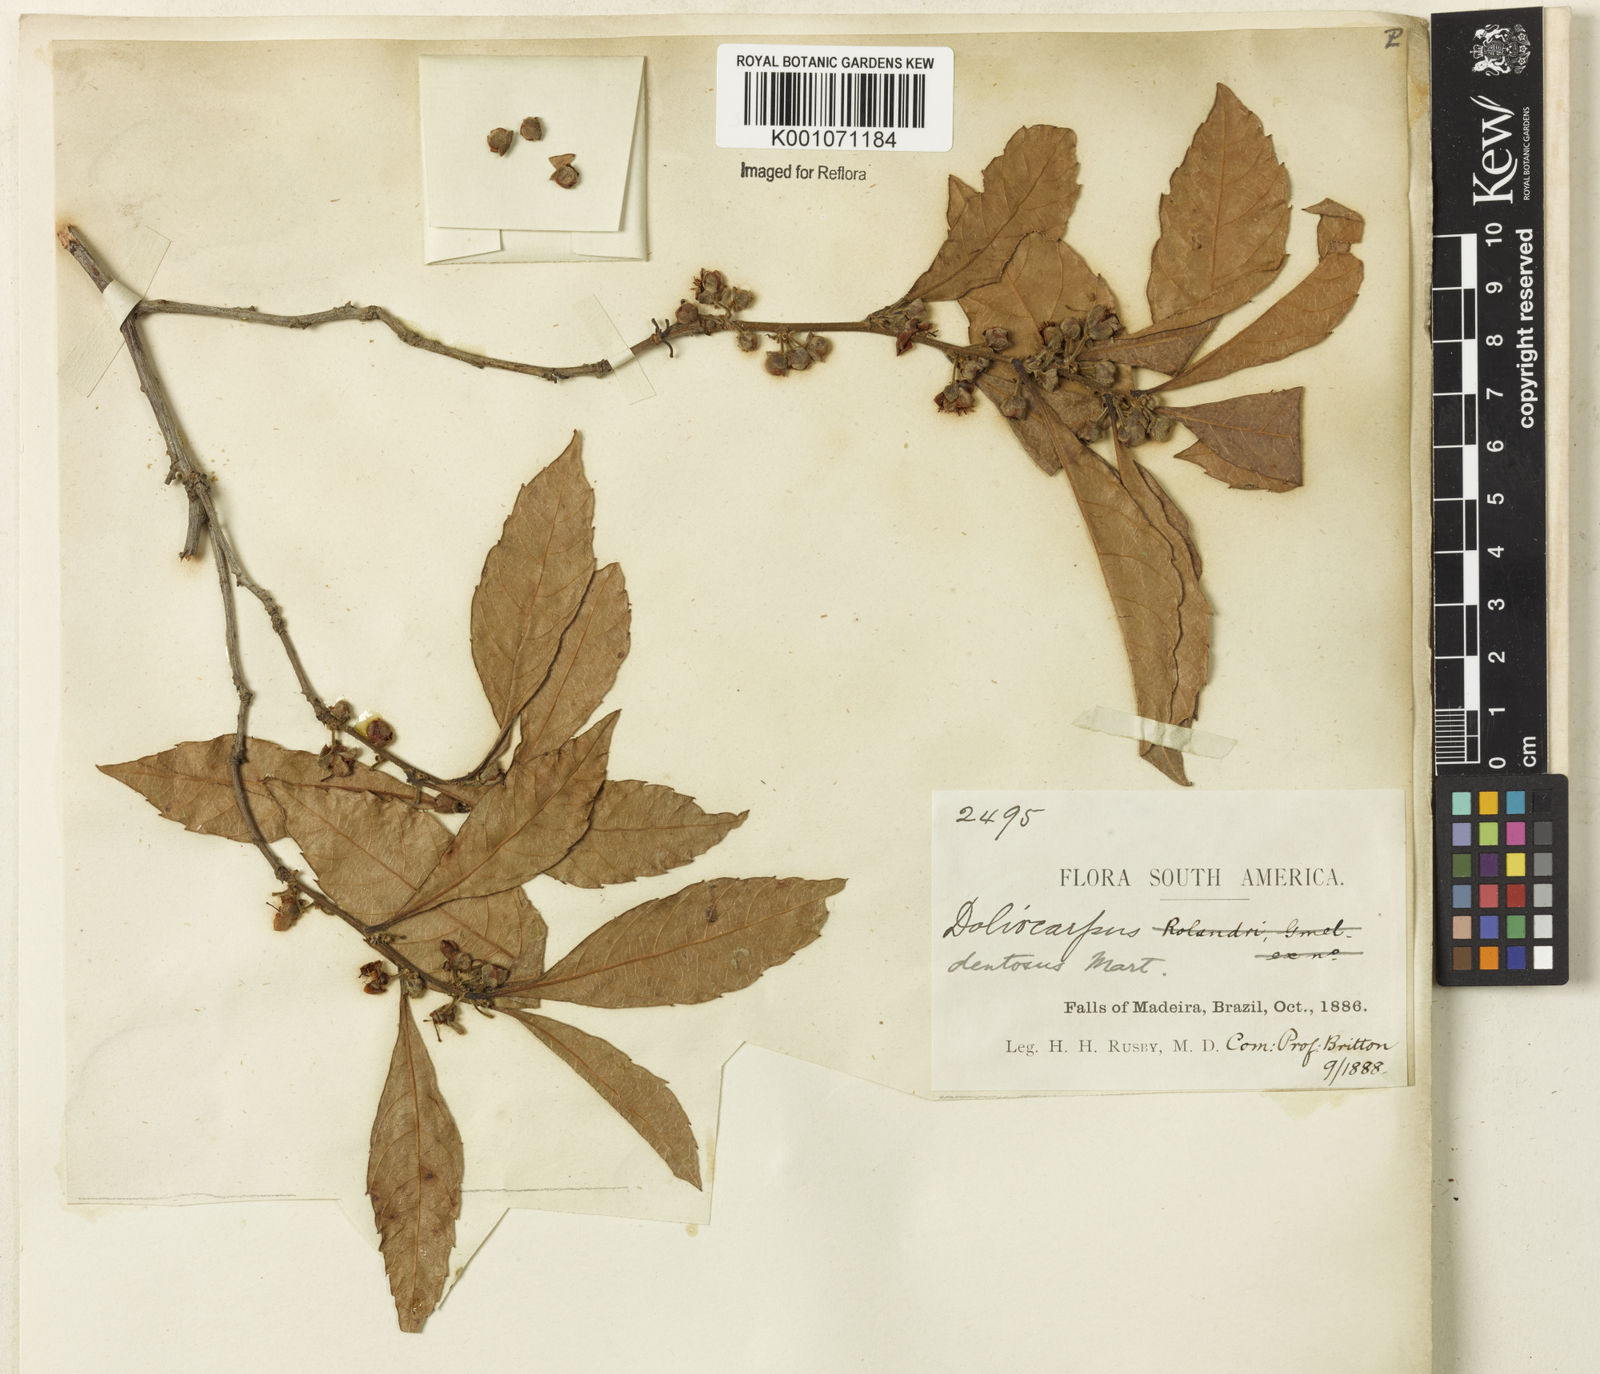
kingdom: Plantae
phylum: Tracheophyta
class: Magnoliopsida
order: Dilleniales
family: Dilleniaceae
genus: Doliocarpus
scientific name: Doliocarpus major
